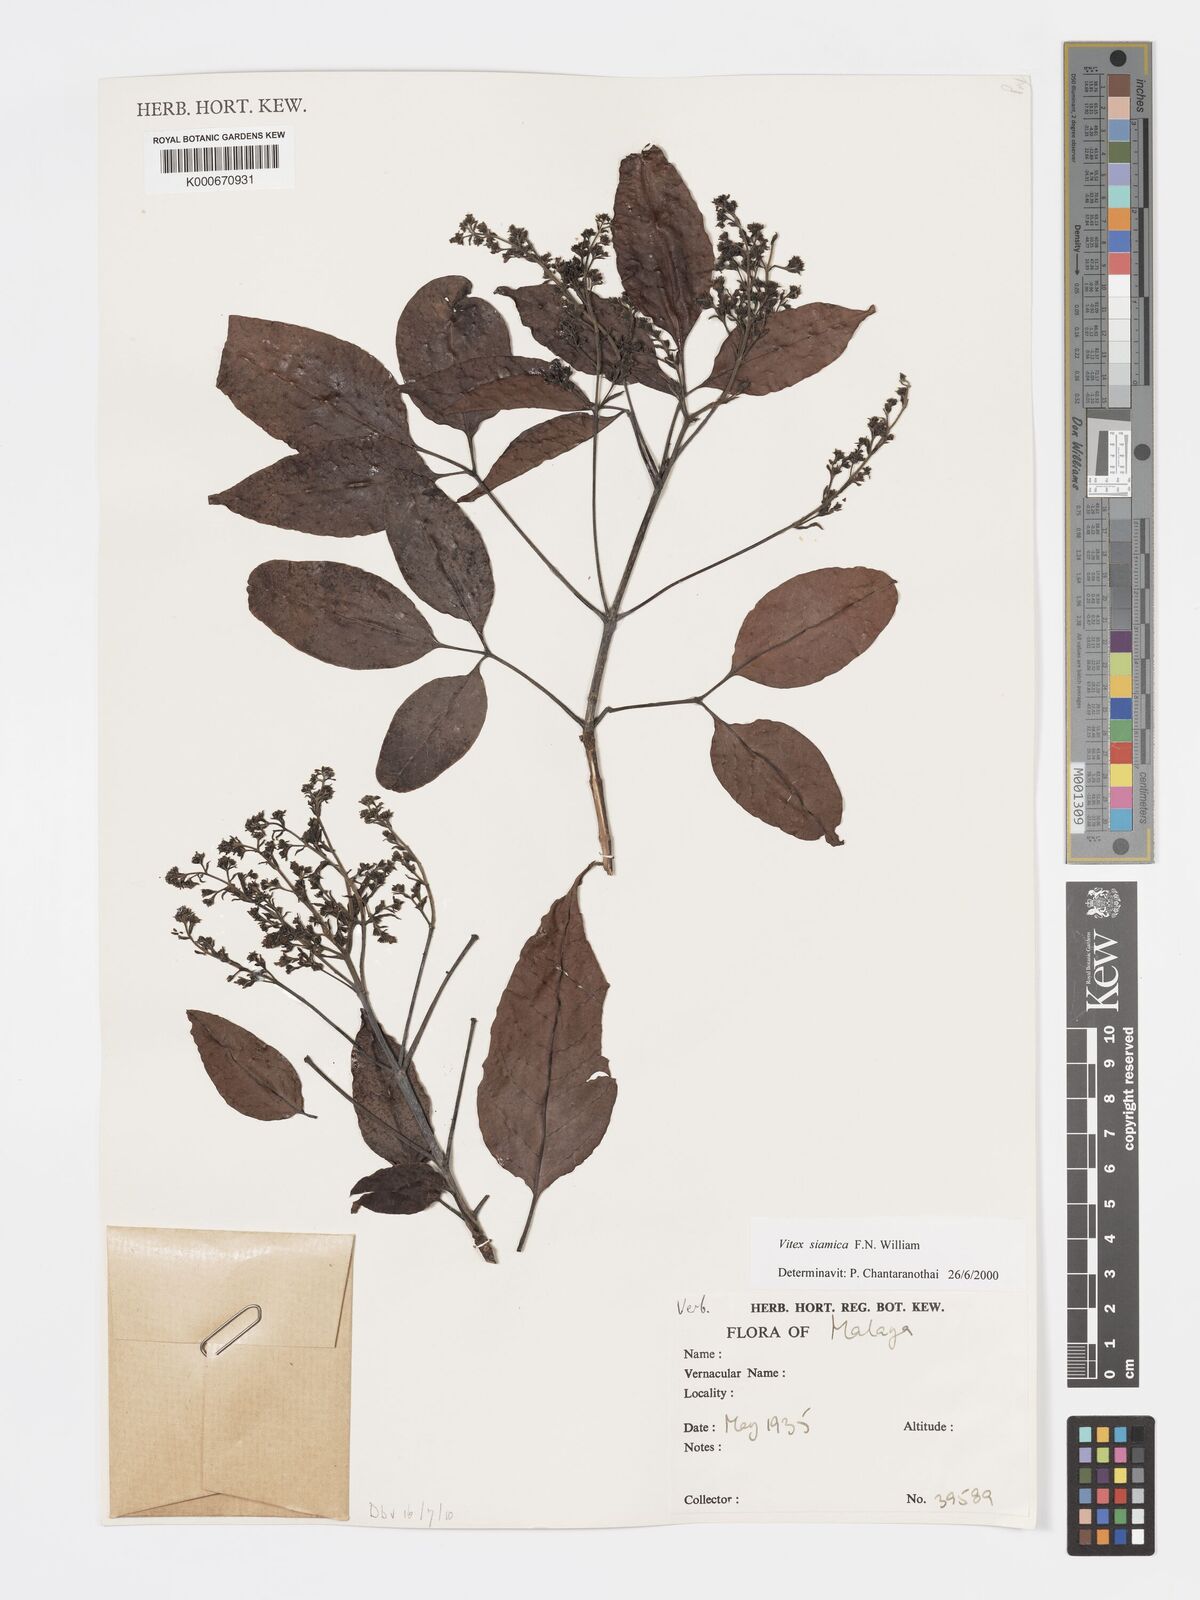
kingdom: Plantae
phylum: Tracheophyta
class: Magnoliopsida
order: Lamiales
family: Lamiaceae
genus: Vitex
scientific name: Vitex siamica
